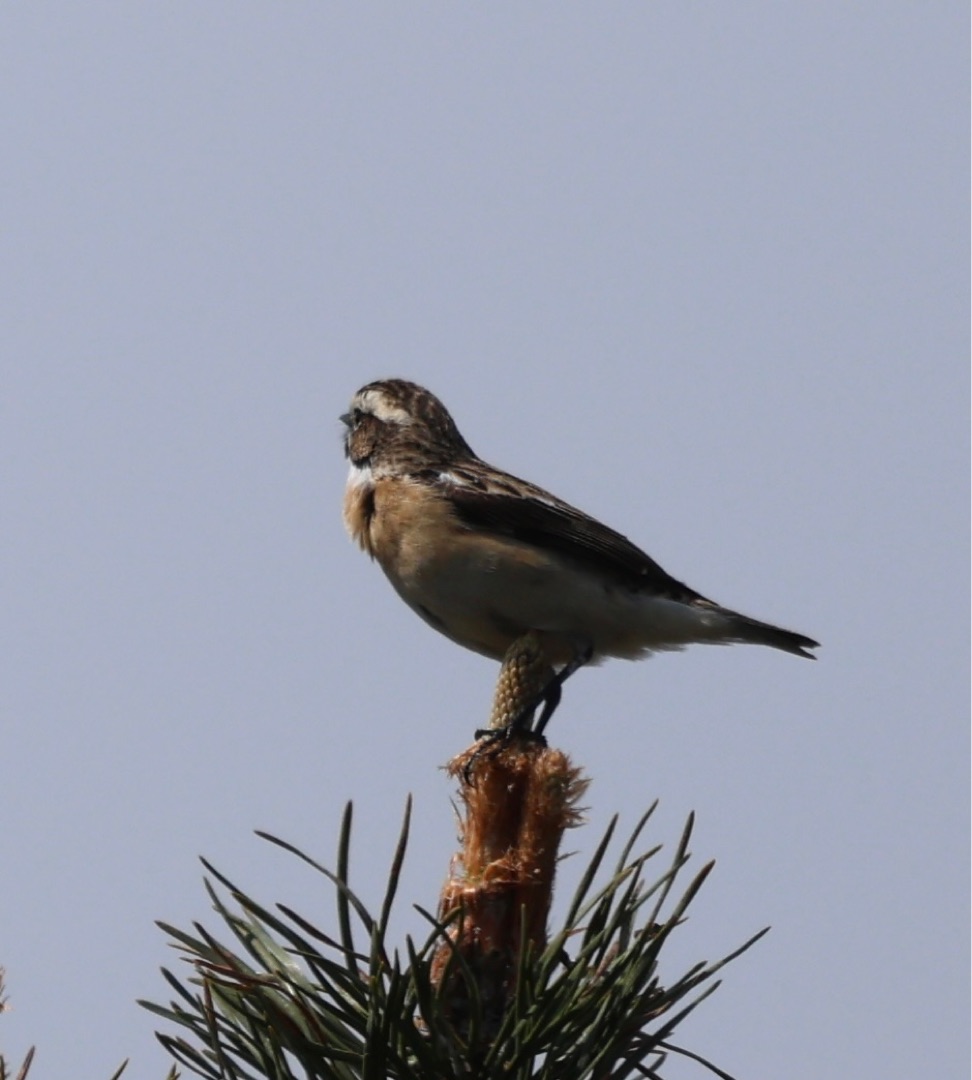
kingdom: Animalia
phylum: Chordata
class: Aves
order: Passeriformes
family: Muscicapidae
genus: Saxicola
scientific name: Saxicola rubetra
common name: Bynkefugl
